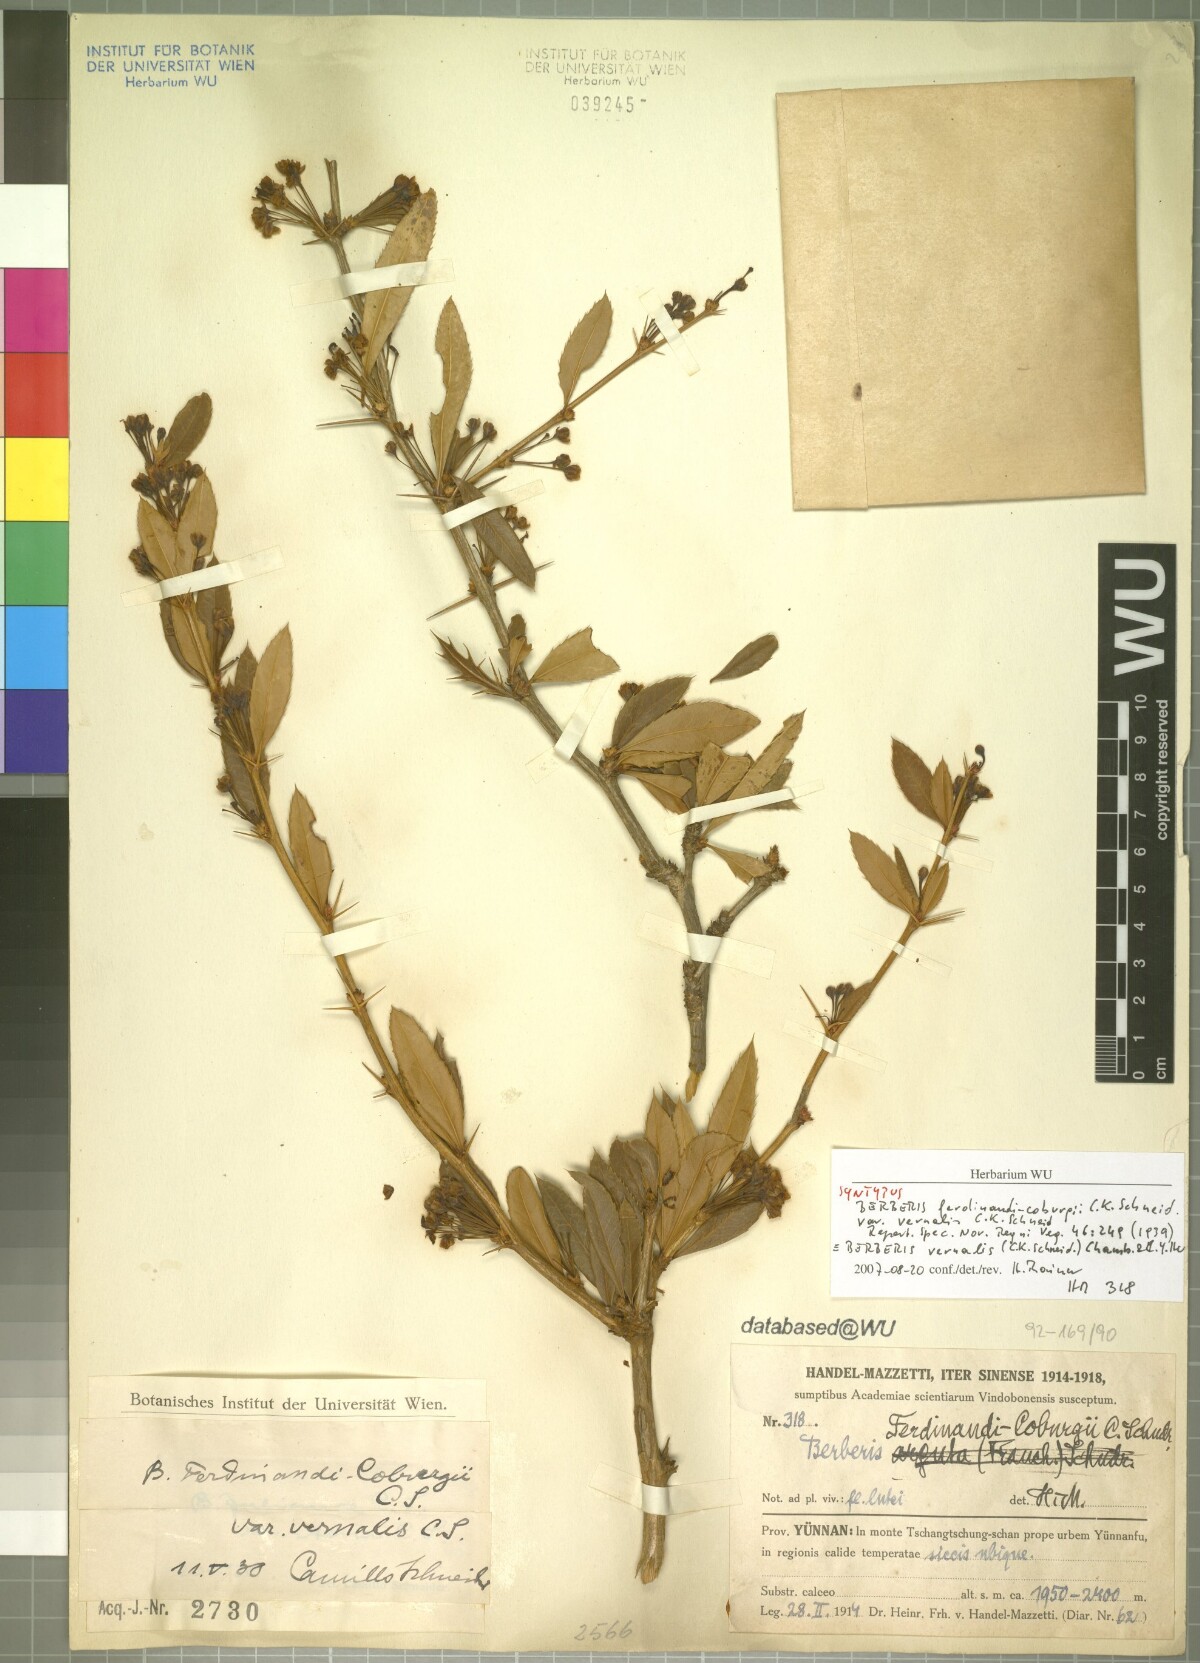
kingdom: Plantae
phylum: Tracheophyta
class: Magnoliopsida
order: Ranunculales
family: Berberidaceae
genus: Berberis
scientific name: Berberis ferdinandi-coburgii
